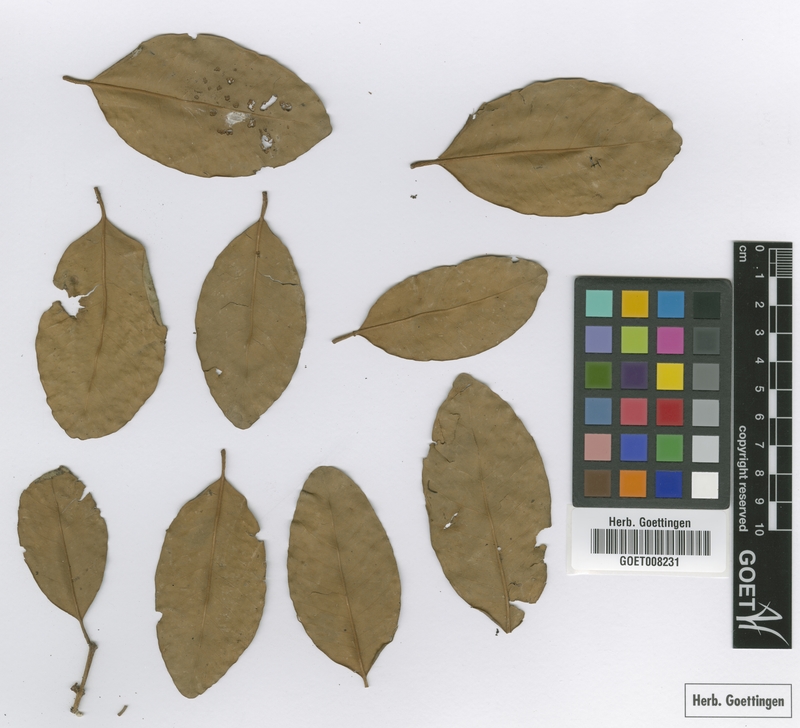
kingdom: Plantae
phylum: Tracheophyta
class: Magnoliopsida
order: Myrtales
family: Myrtaceae
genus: Eugenia
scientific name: Eugenia moritziana
